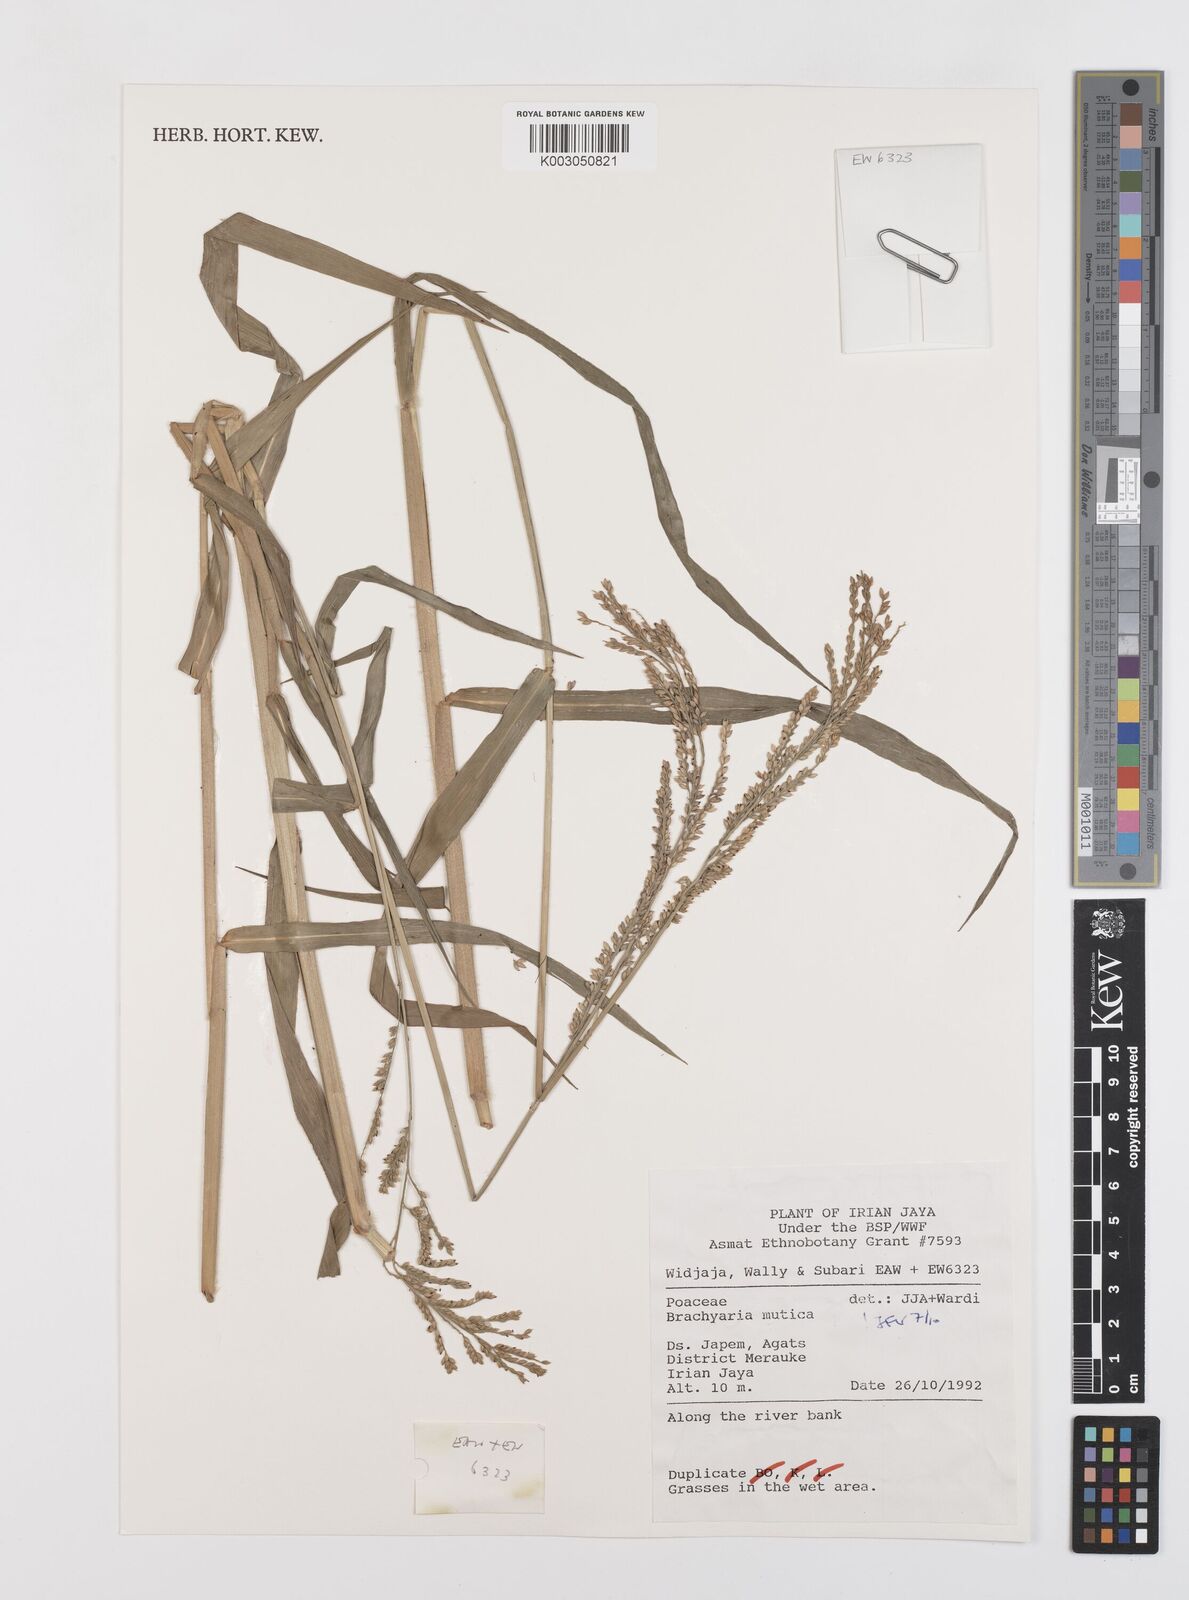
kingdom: Plantae
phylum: Tracheophyta
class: Liliopsida
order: Poales
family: Poaceae
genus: Urochloa
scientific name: Urochloa mutica
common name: Para grass
